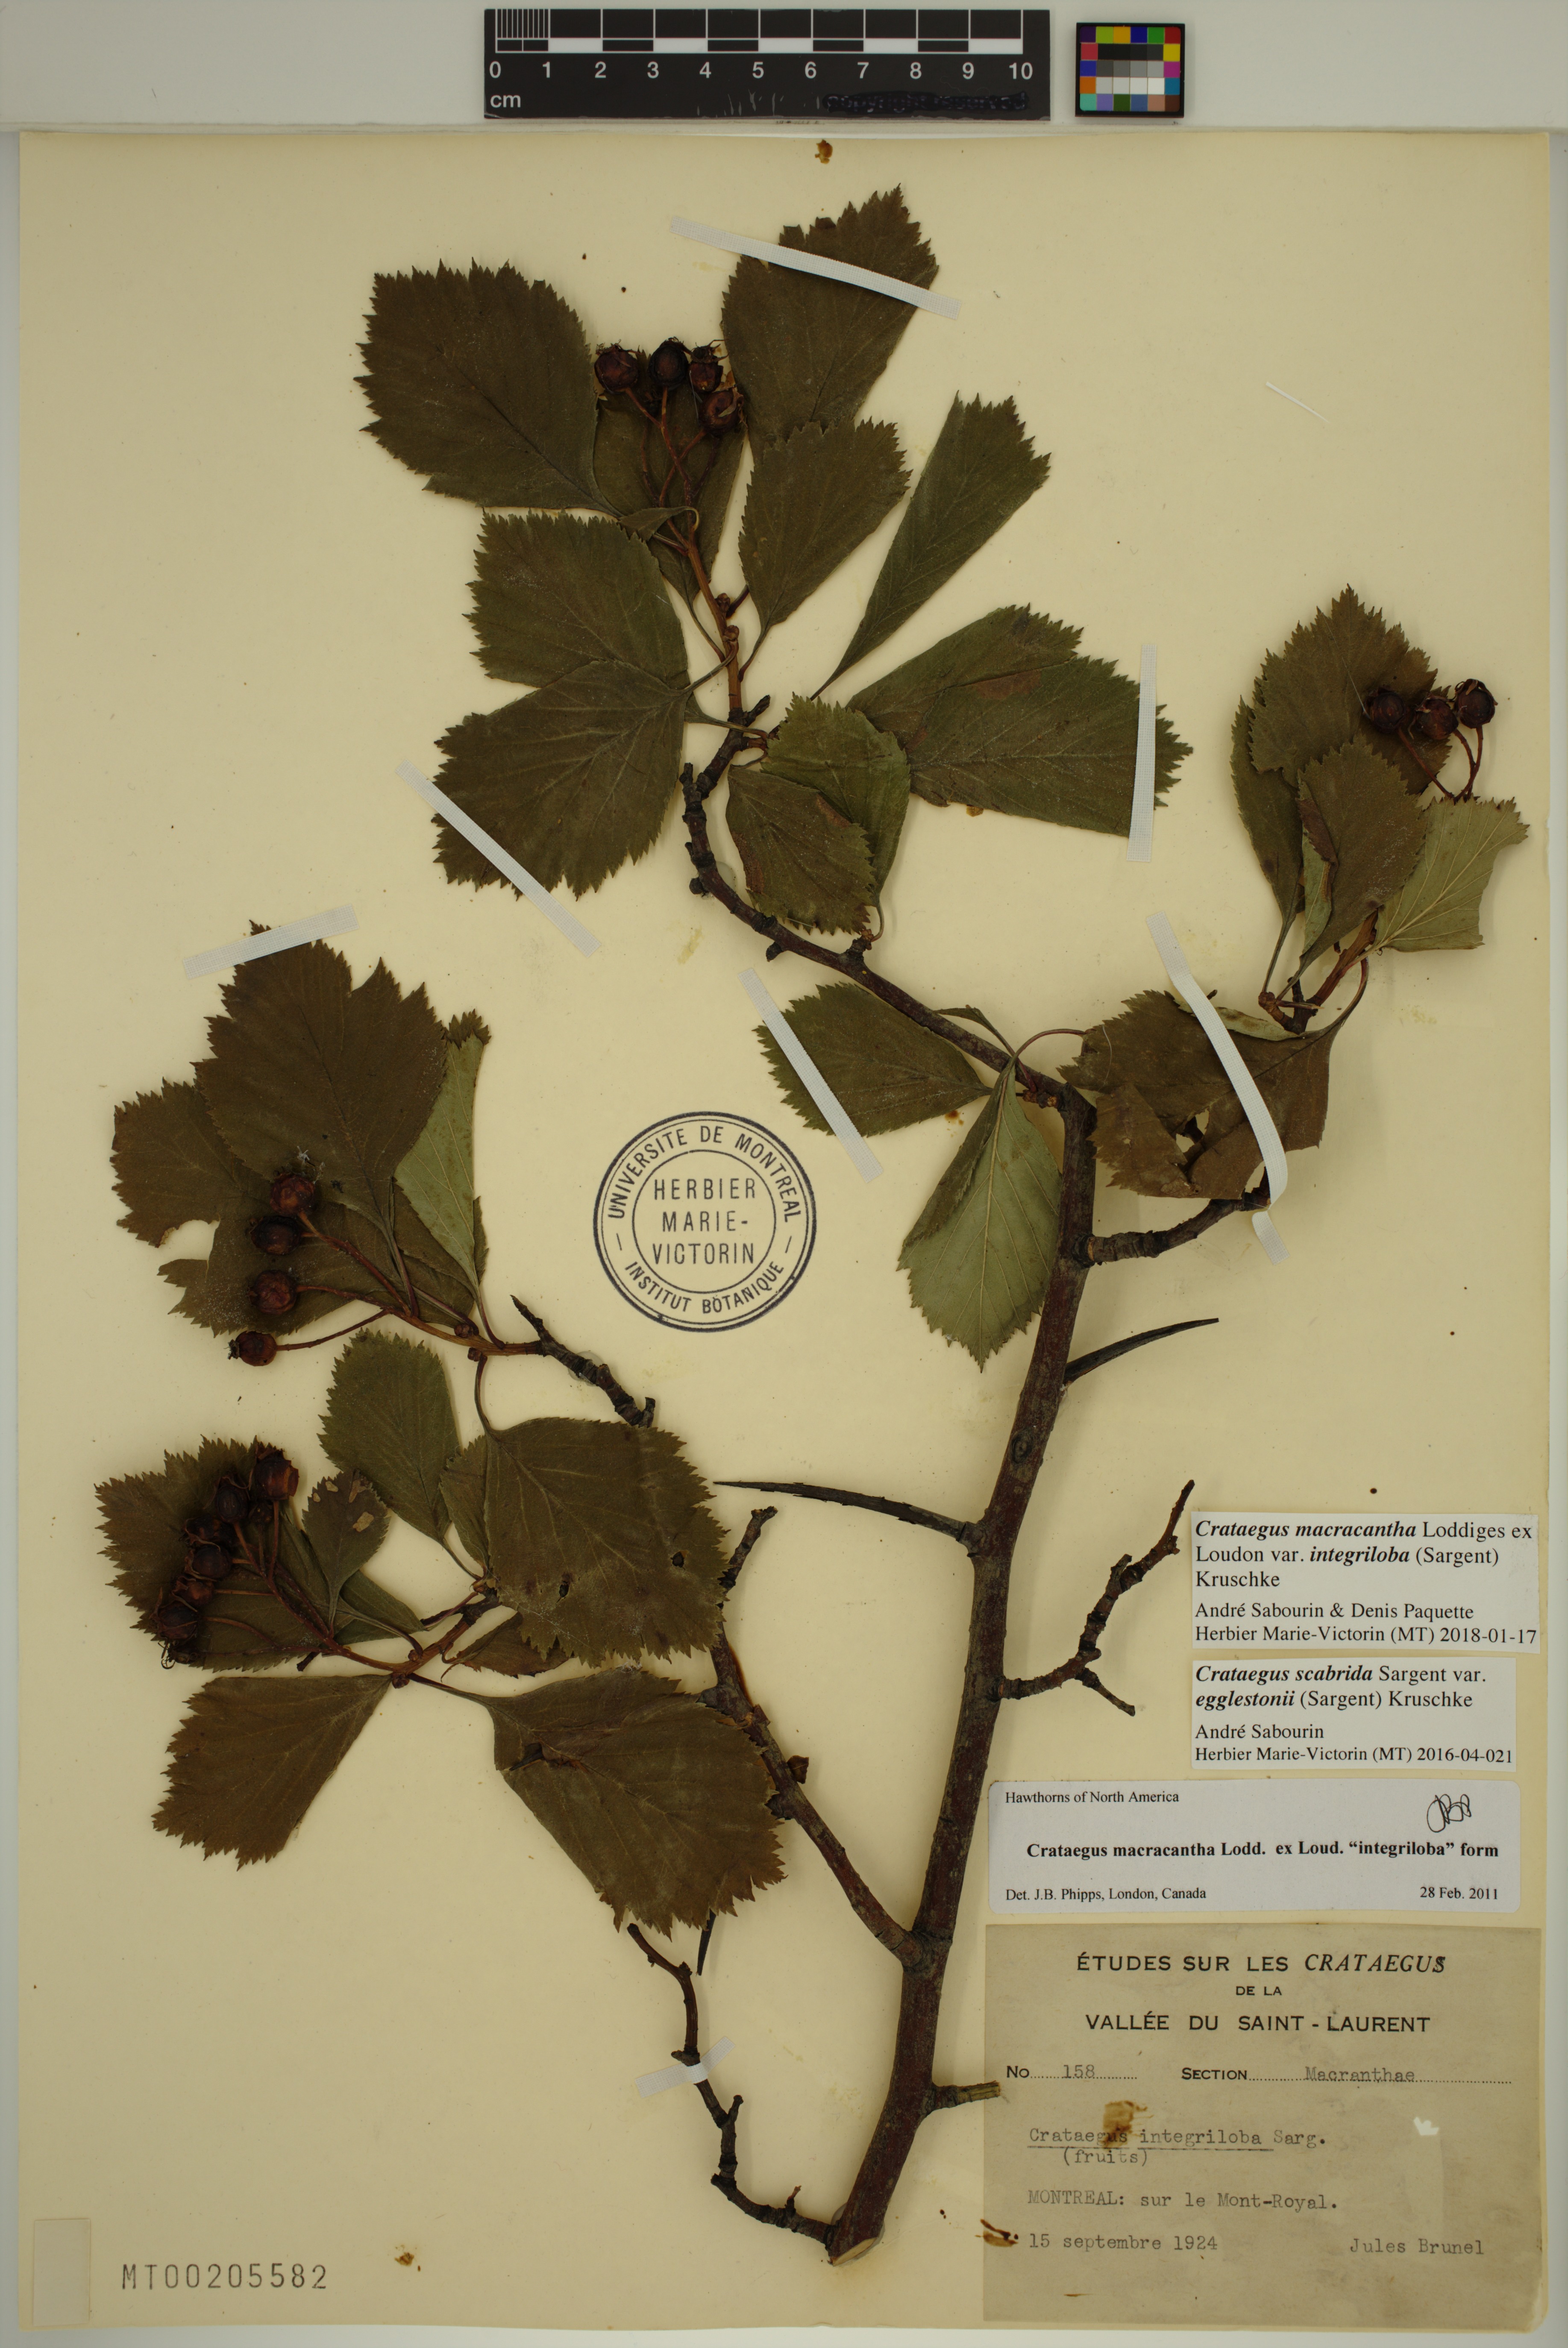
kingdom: Plantae
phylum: Tracheophyta
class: Magnoliopsida
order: Rosales
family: Rosaceae
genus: Crataegus
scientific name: Crataegus succulenta
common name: Fleshy hawthorn
